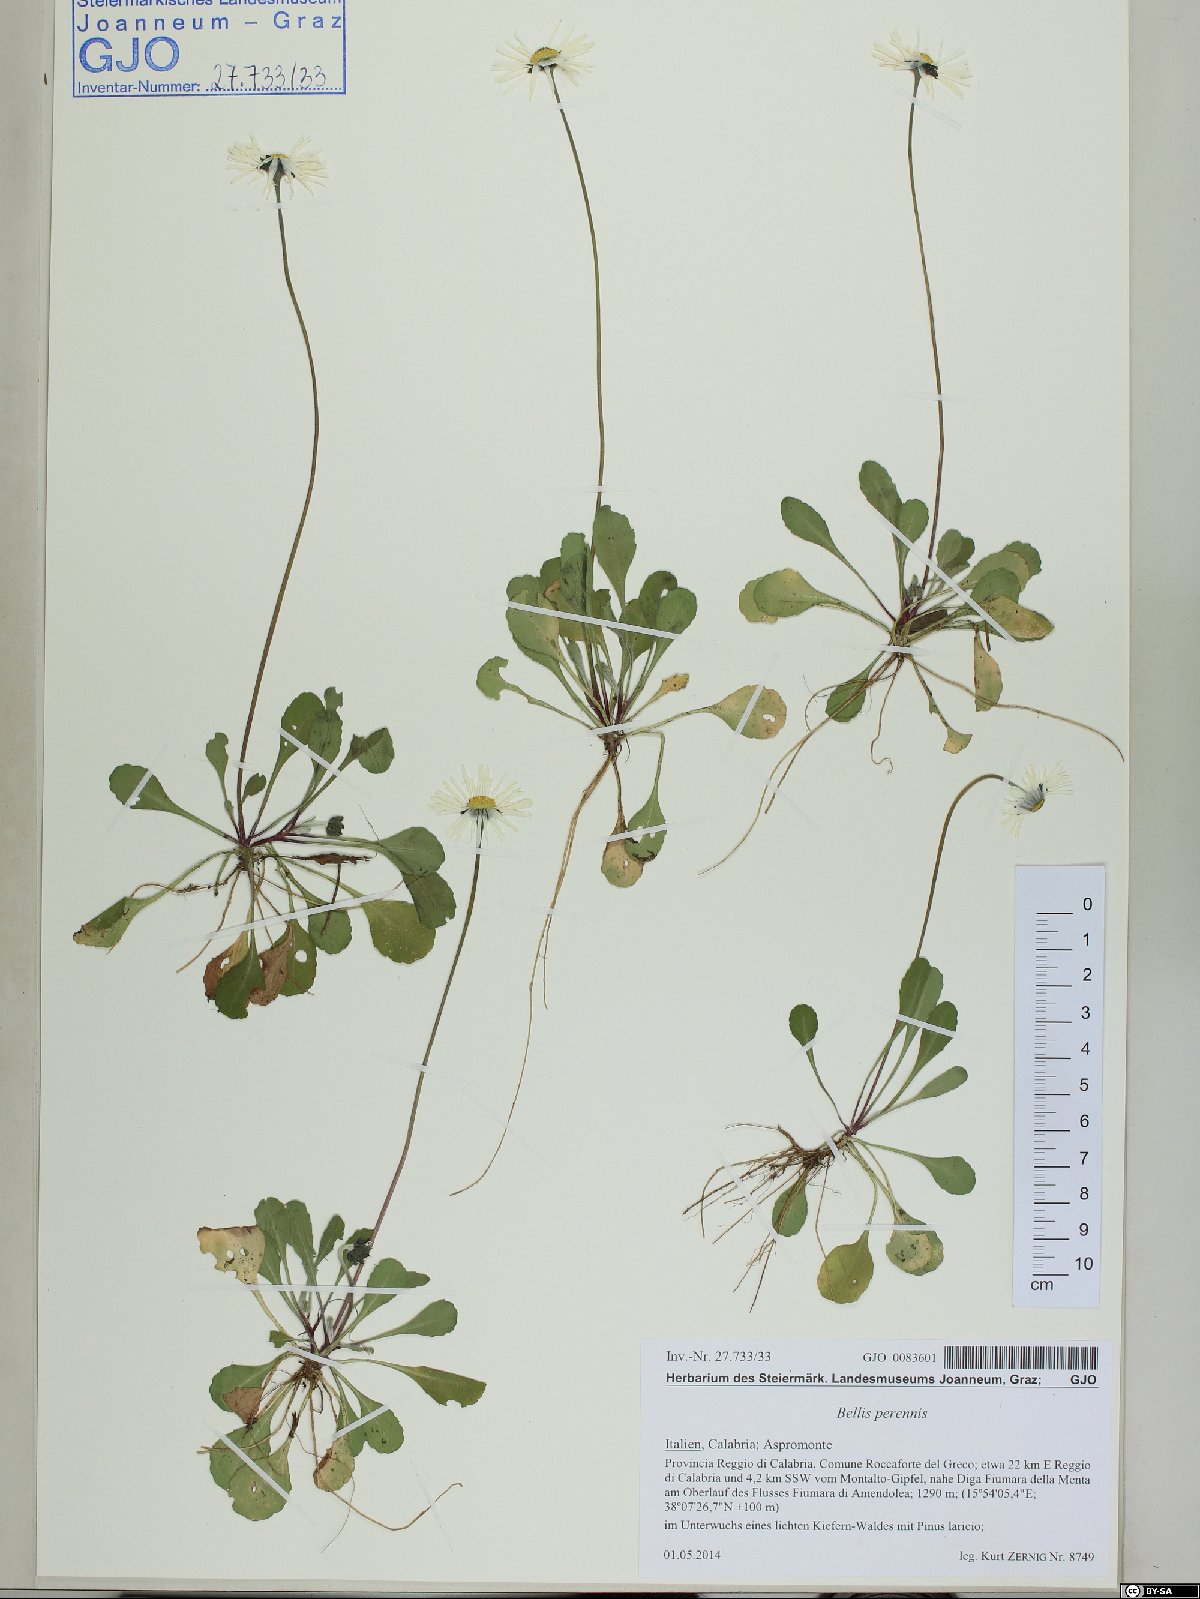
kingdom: Plantae
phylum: Tracheophyta
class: Magnoliopsida
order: Asterales
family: Asteraceae
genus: Bellis
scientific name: Bellis perennis
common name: Lawndaisy
